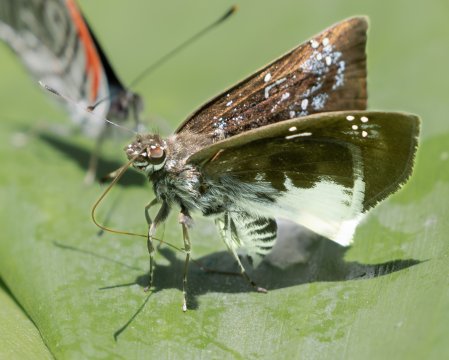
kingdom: Animalia
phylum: Arthropoda
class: Insecta
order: Lepidoptera
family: Hesperiidae
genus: Quadrus
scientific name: Quadrus cerialis
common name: Common Blue-Skipper
